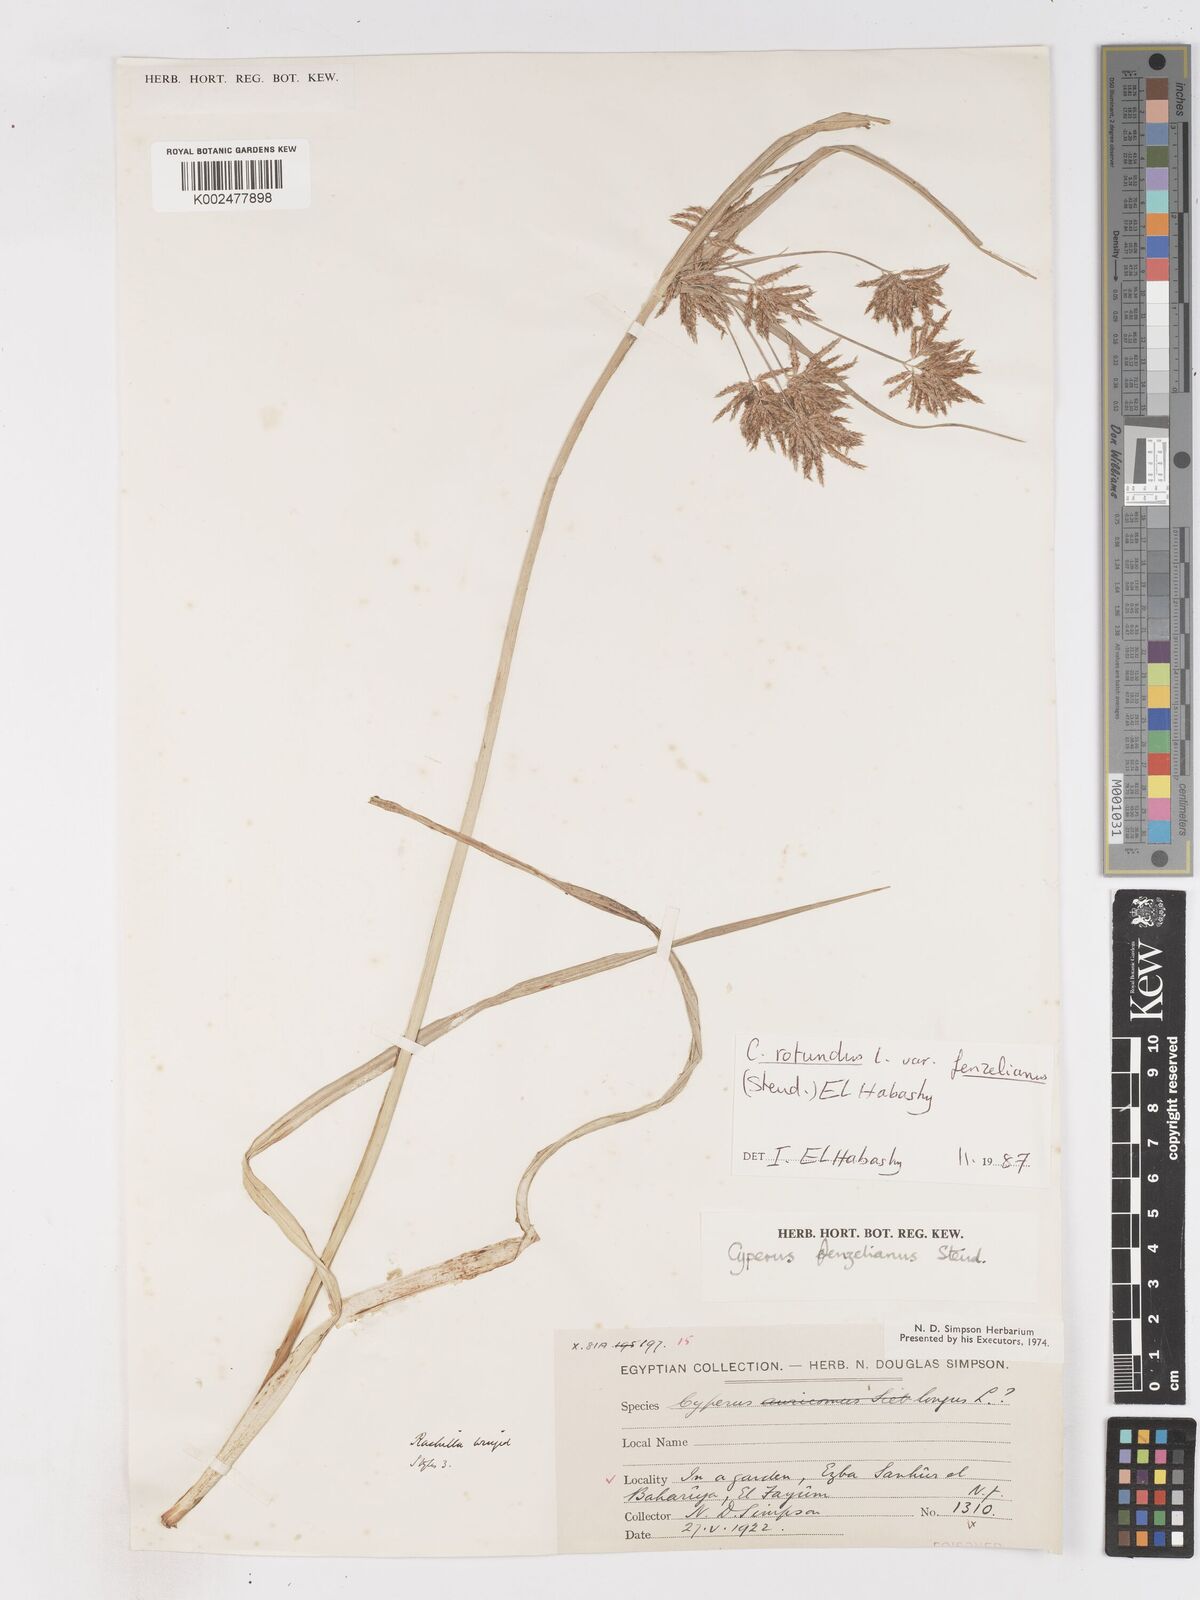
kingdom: Plantae
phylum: Tracheophyta
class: Liliopsida
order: Poales
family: Cyperaceae
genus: Cyperus
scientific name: Cyperus longus
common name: Galingale
